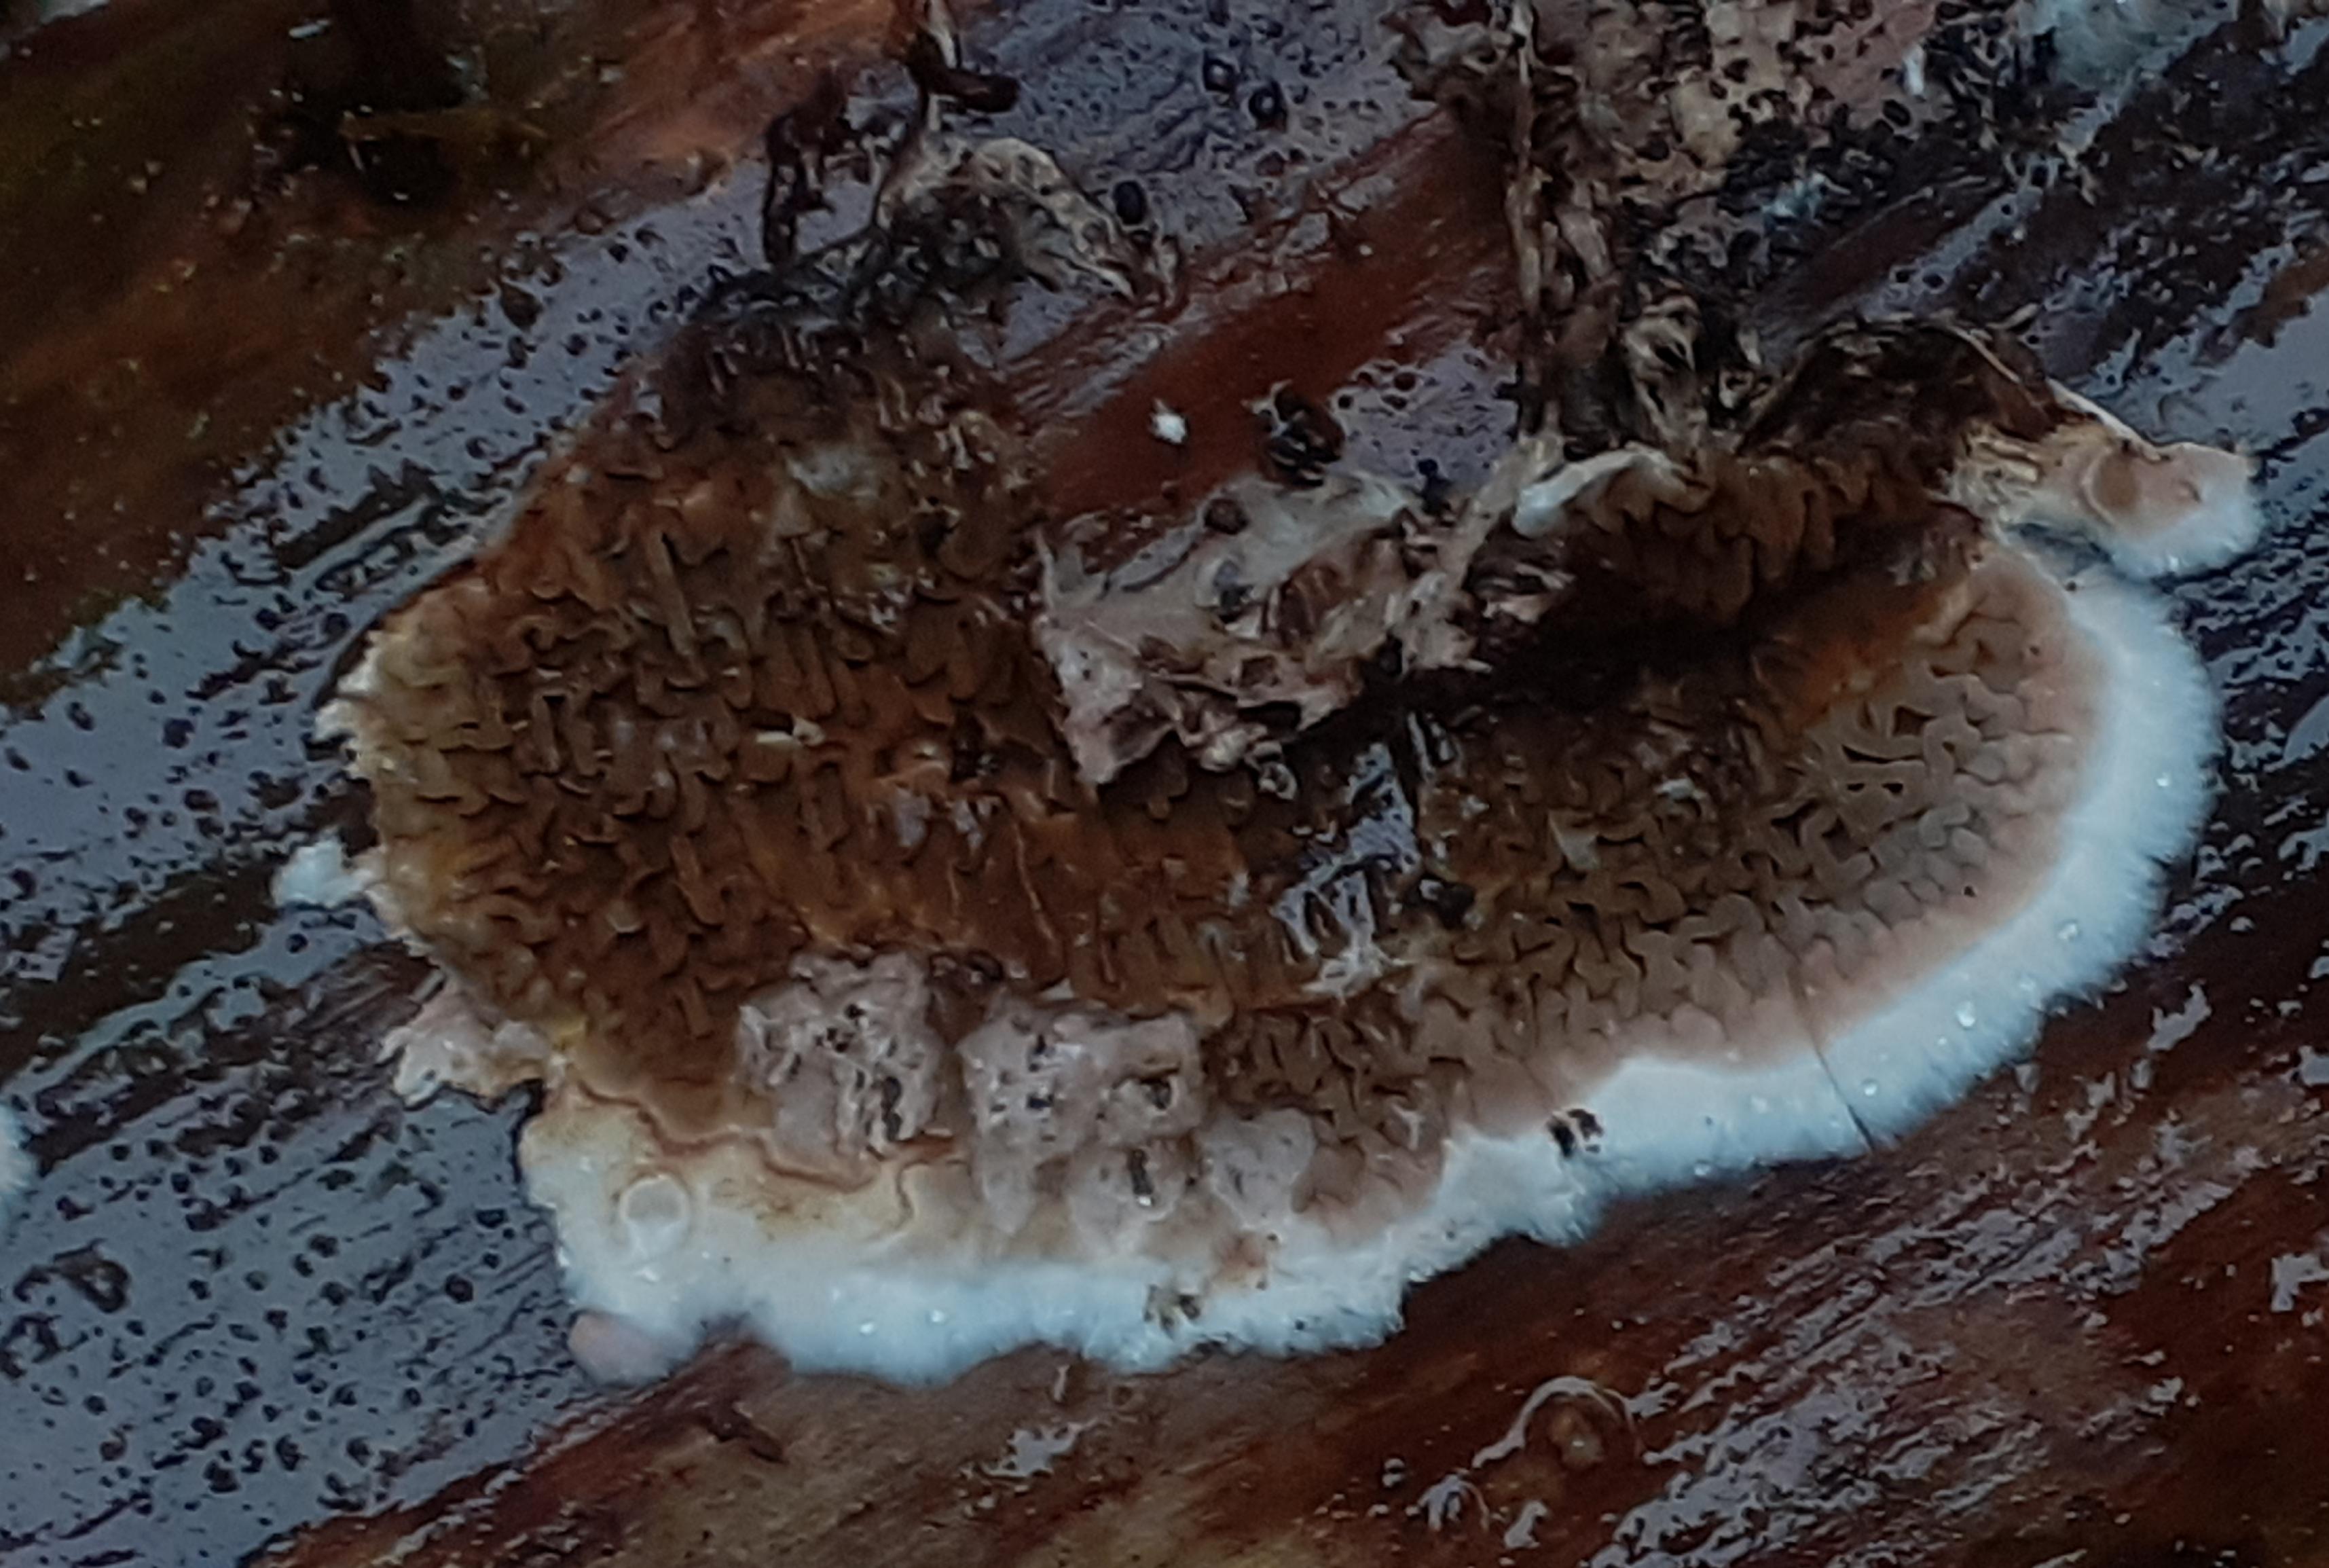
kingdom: Fungi
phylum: Basidiomycota
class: Agaricomycetes
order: Boletales
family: Serpulaceae
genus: Serpula
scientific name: Serpula himantioides
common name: tyndkødet hussvamp
